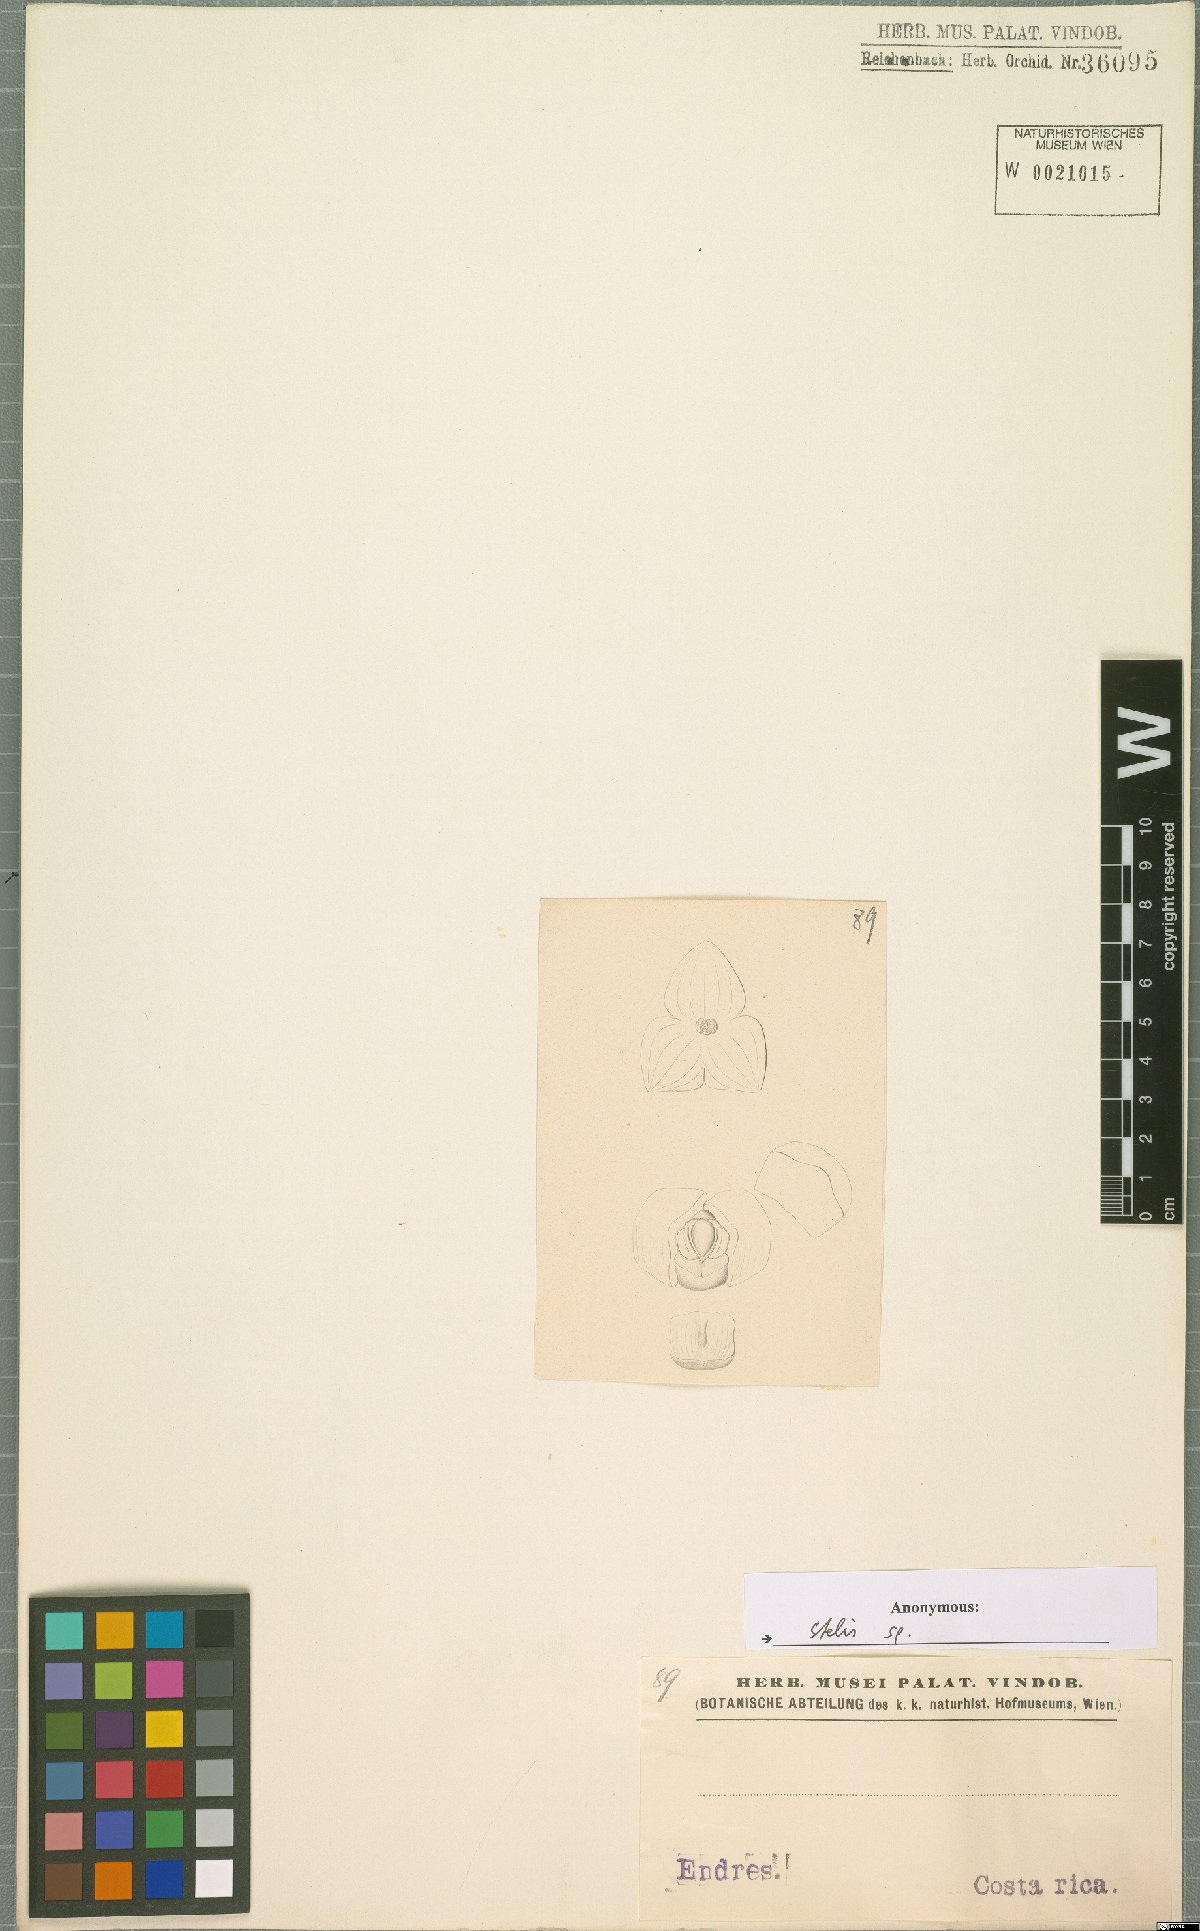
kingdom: Plantae
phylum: Tracheophyta
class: Liliopsida
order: Asparagales
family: Orchidaceae
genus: Stelis
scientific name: Stelis
